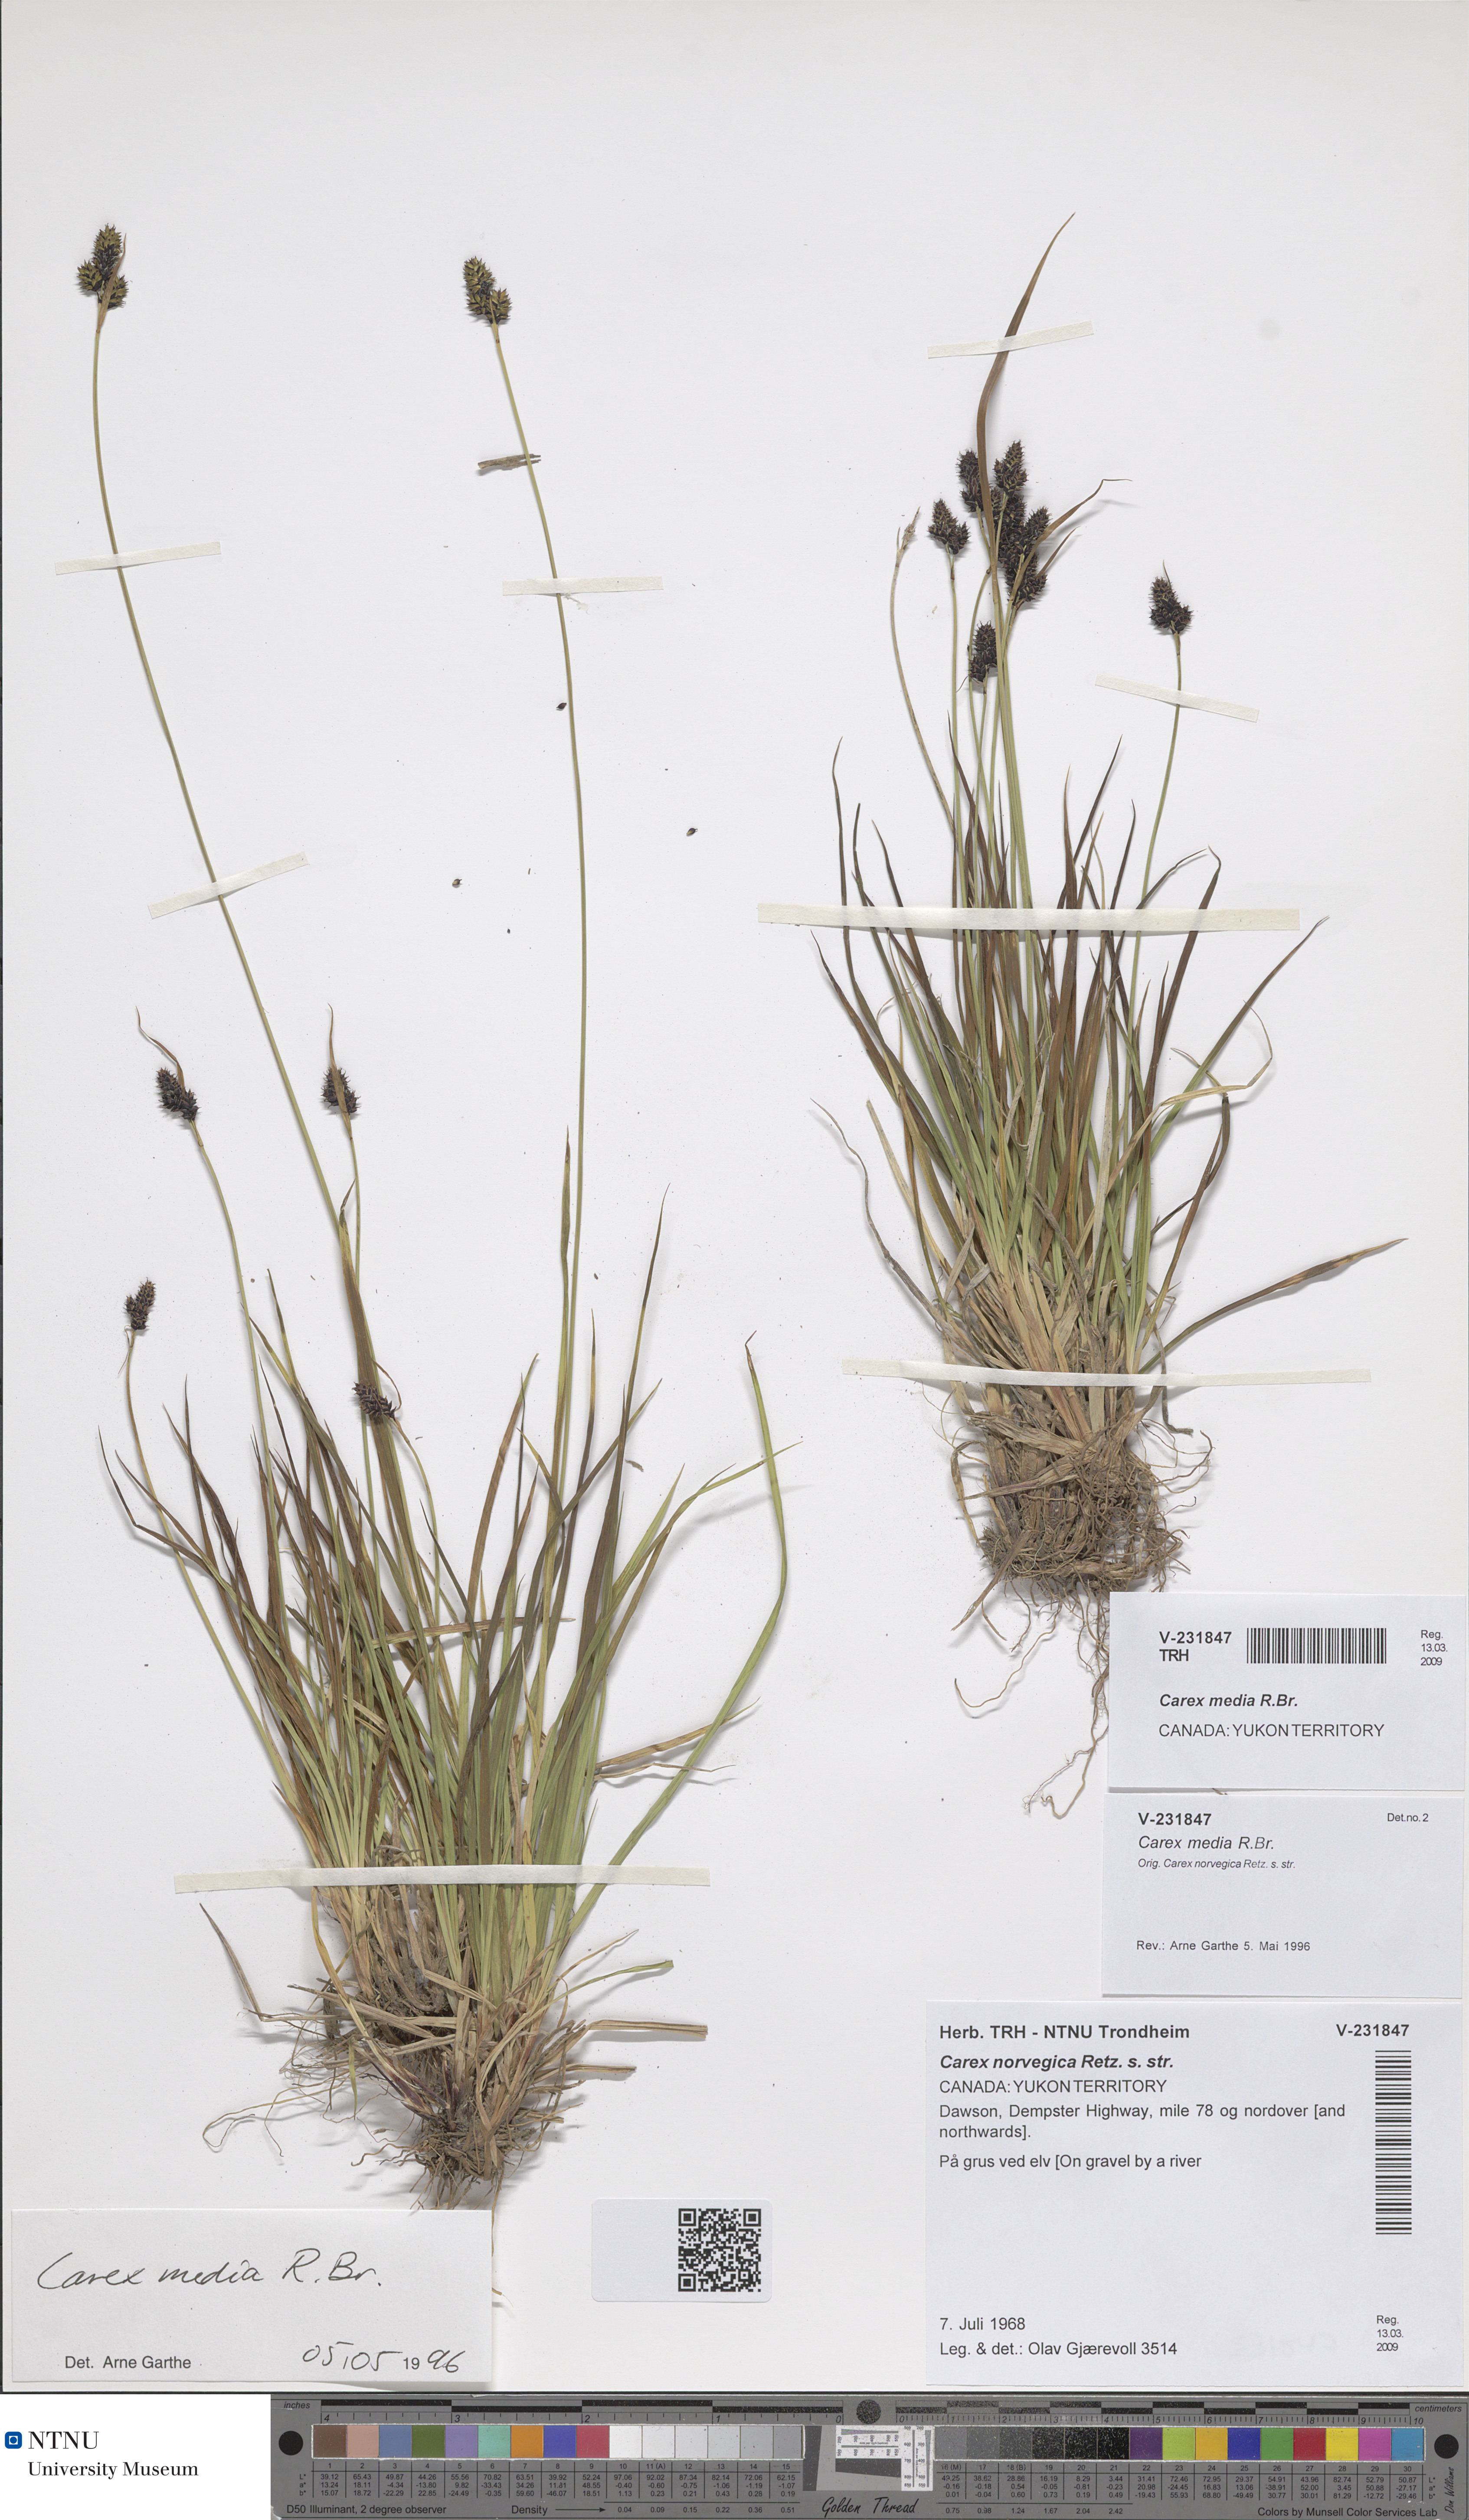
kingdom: Plantae
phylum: Tracheophyta
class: Liliopsida
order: Poales
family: Cyperaceae
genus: Carex
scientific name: Carex media
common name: Alpine sedge
